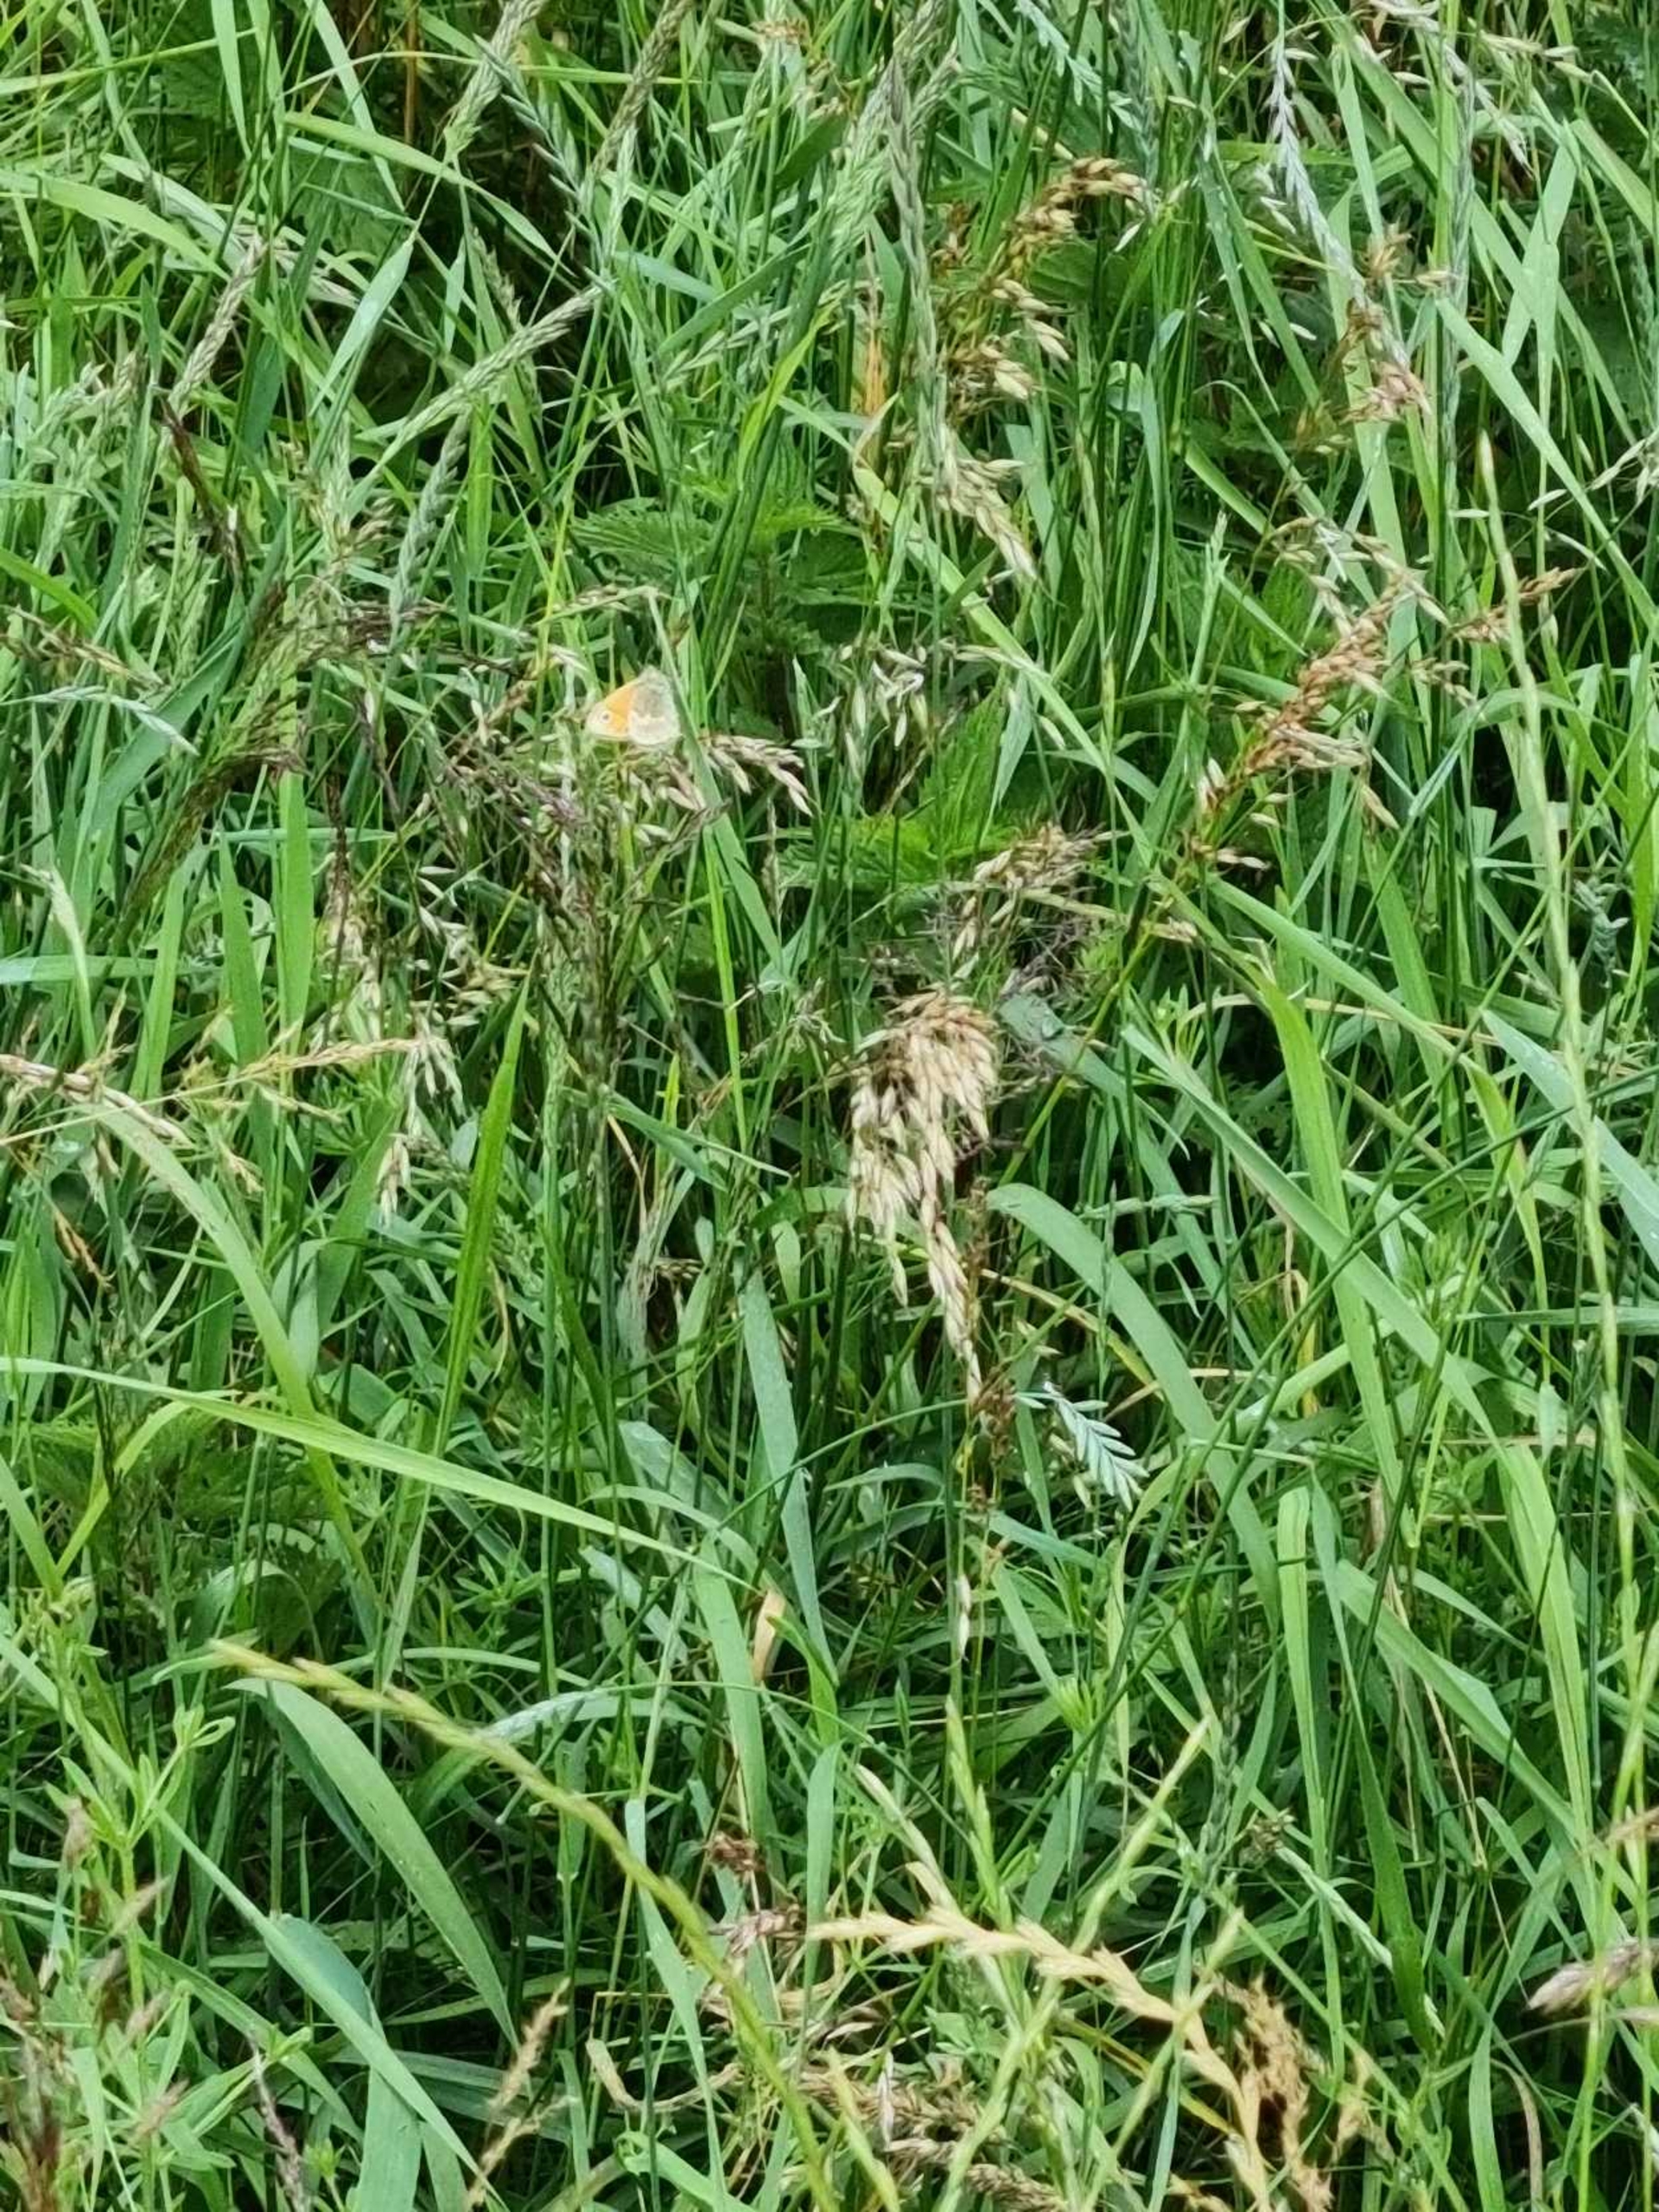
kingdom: Animalia
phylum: Arthropoda
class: Insecta
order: Lepidoptera
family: Nymphalidae
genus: Coenonympha
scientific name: Coenonympha pamphilus
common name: Okkergul randøje
